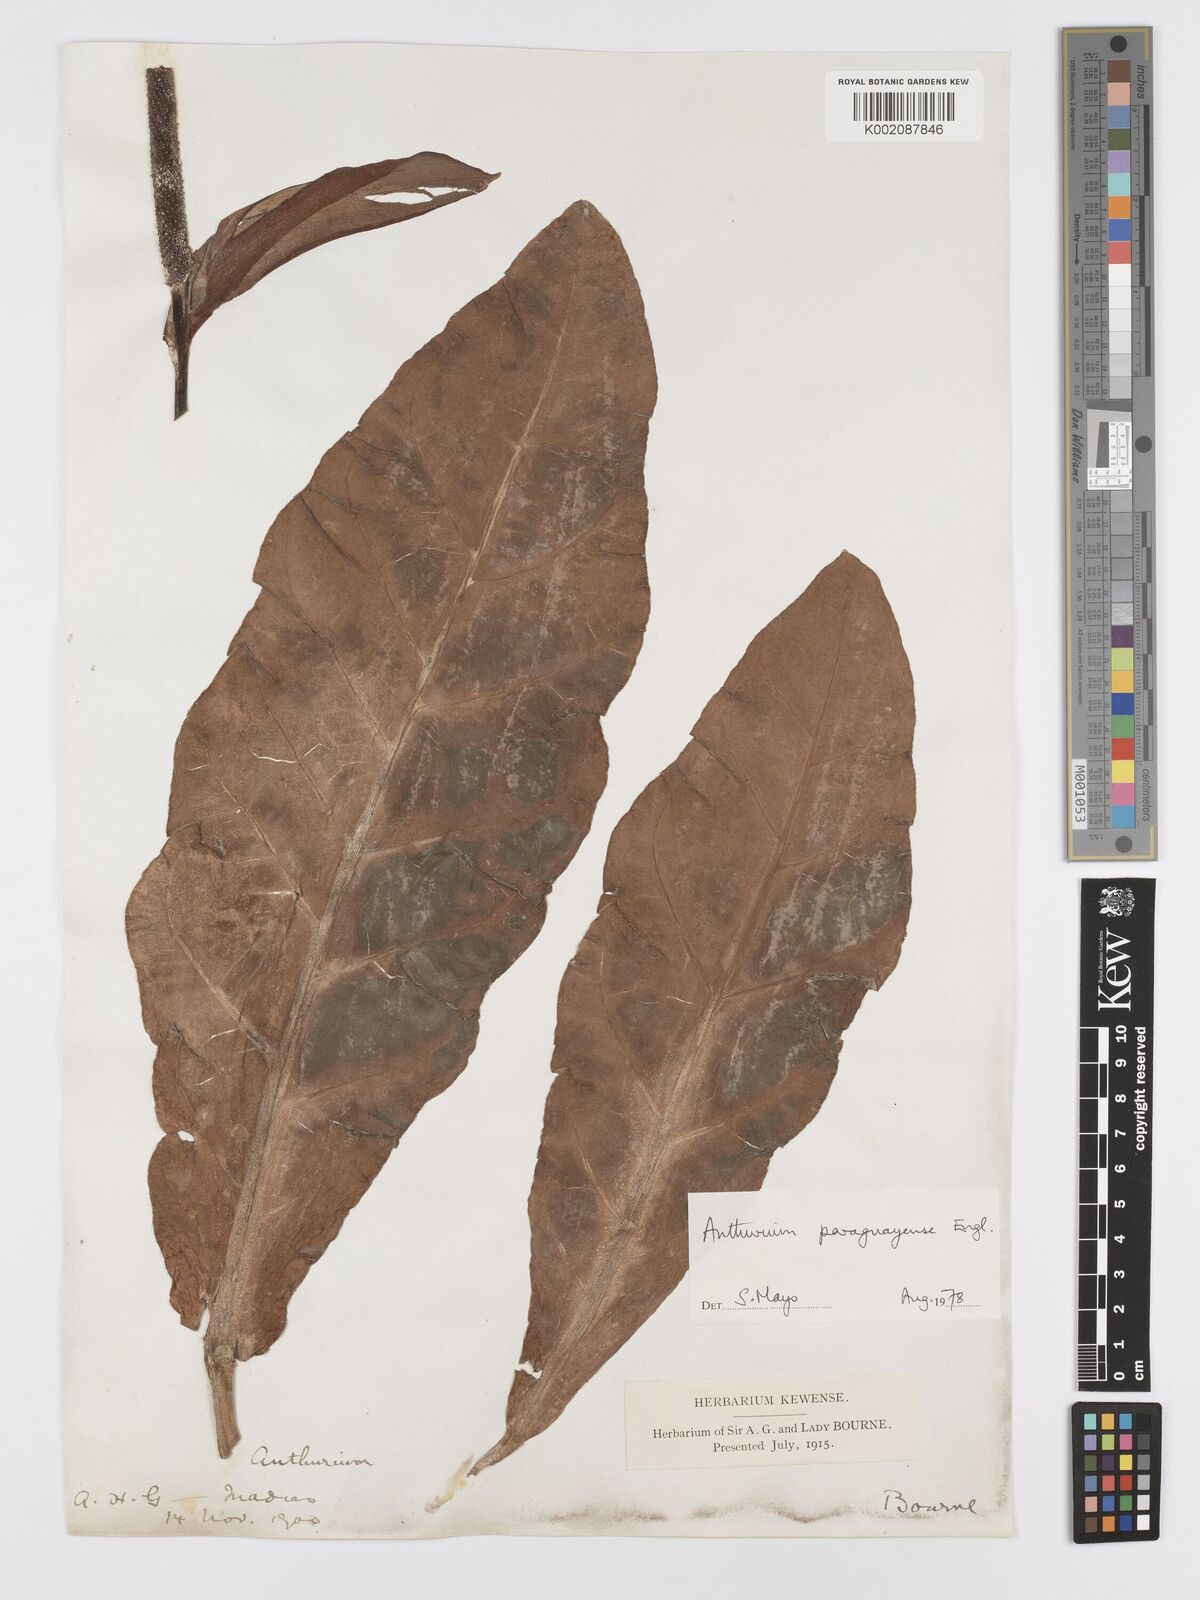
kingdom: Plantae
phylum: Tracheophyta
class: Liliopsida
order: Alismatales
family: Araceae
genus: Anthurium
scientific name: Anthurium paraguayense
